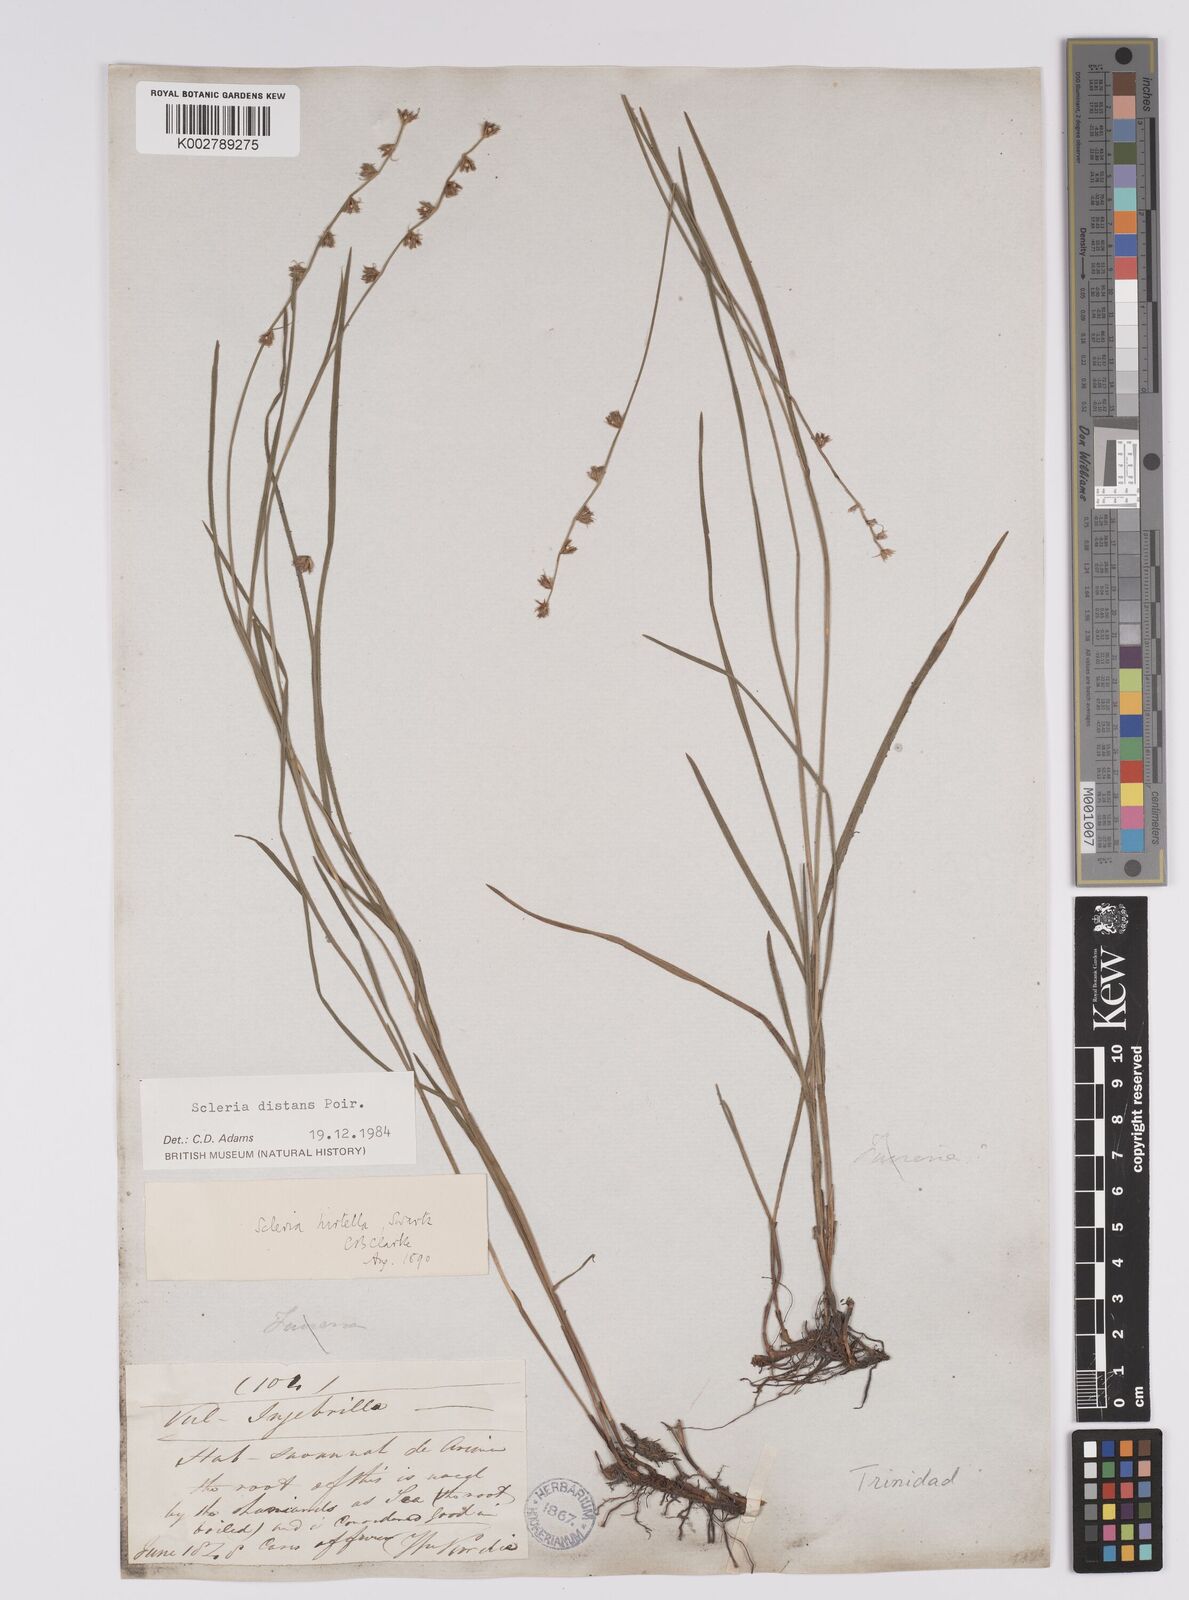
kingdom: Plantae
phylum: Tracheophyta
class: Liliopsida
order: Poales
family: Cyperaceae
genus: Scleria
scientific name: Scleria distans
